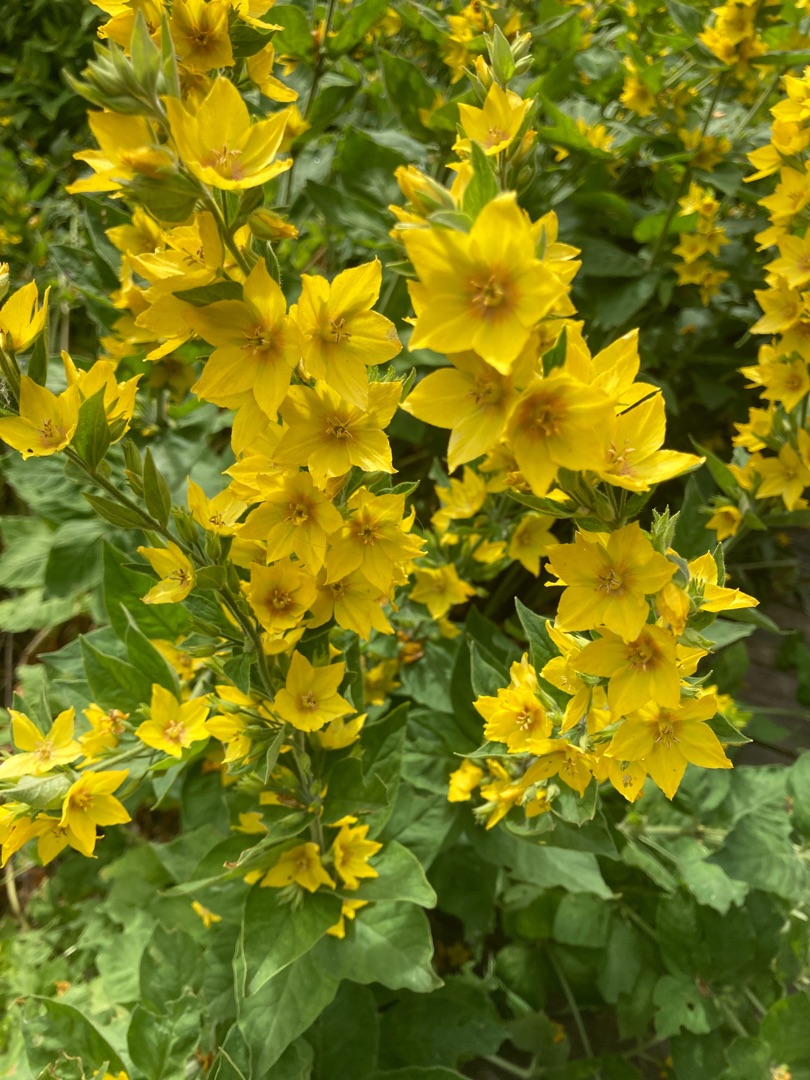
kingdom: Plantae
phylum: Tracheophyta
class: Magnoliopsida
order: Ericales
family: Primulaceae
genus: Lysimachia
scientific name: Lysimachia punctata
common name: Prikbladet fredløs
